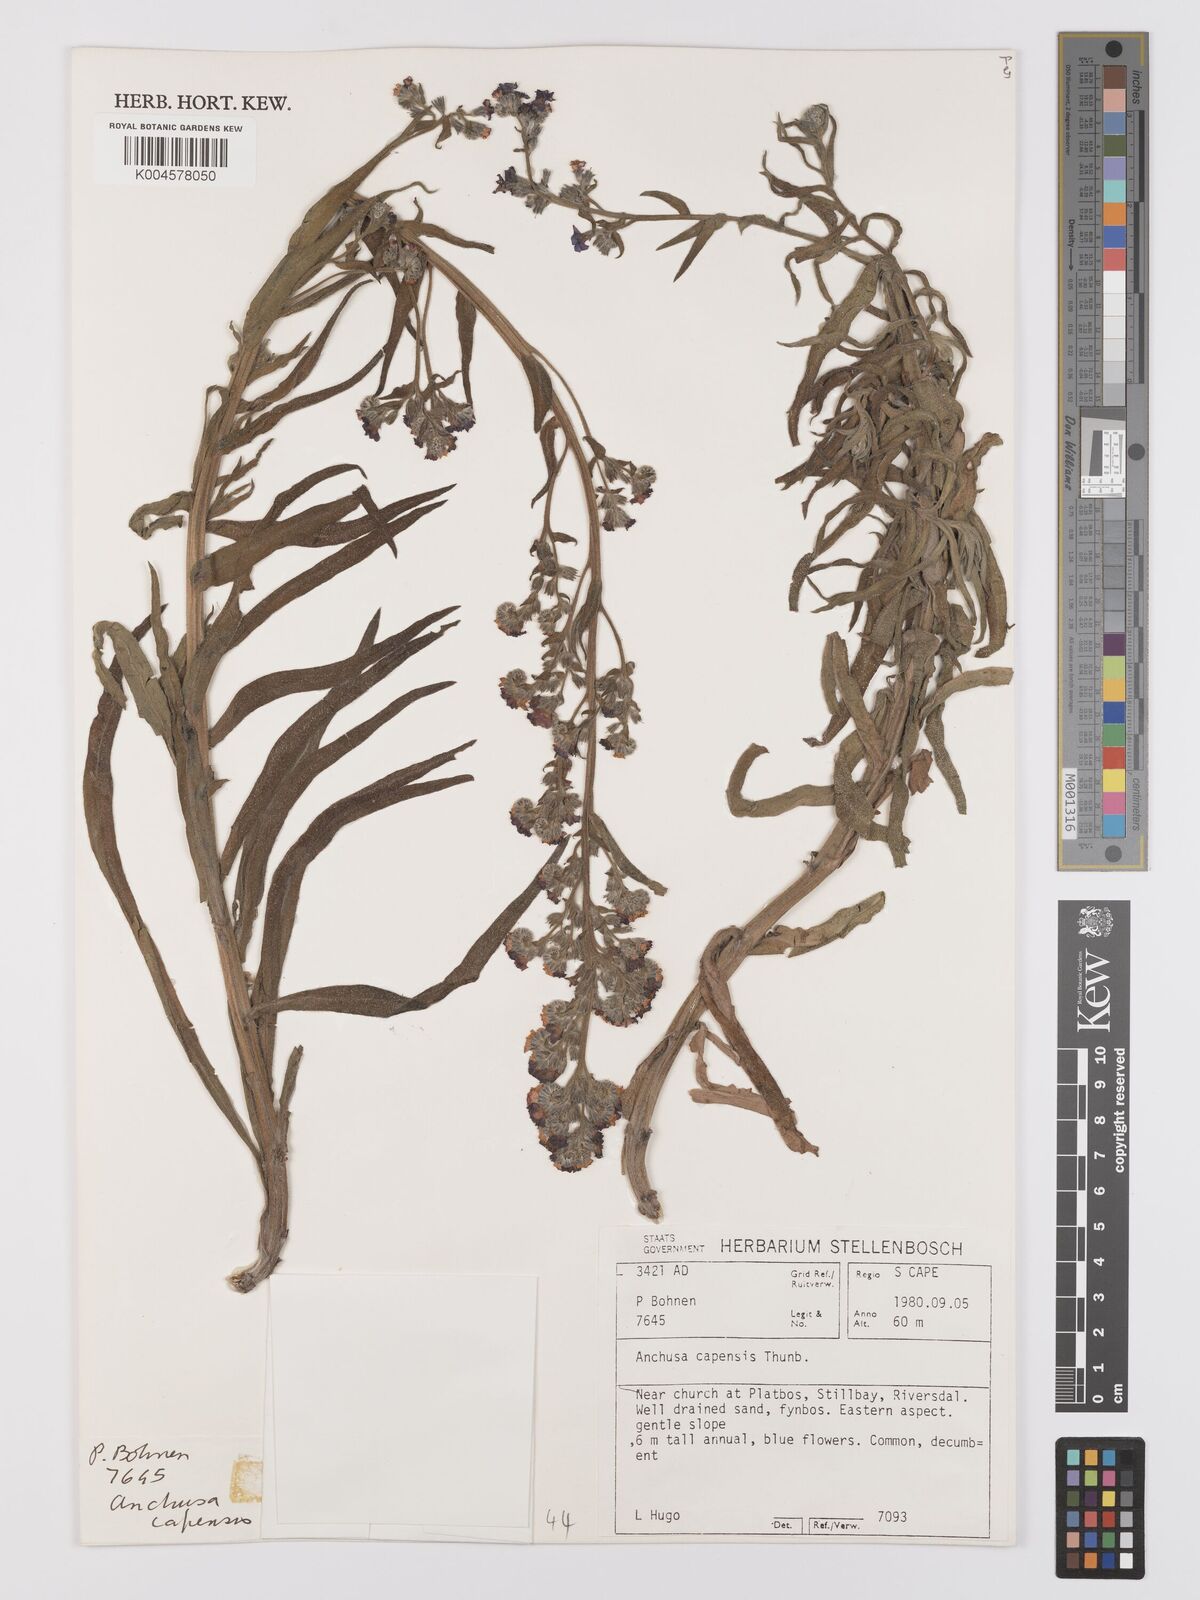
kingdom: Plantae
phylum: Tracheophyta
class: Magnoliopsida
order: Boraginales
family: Boraginaceae
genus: Anchusa
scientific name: Anchusa capensis
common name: Cape bugloss
